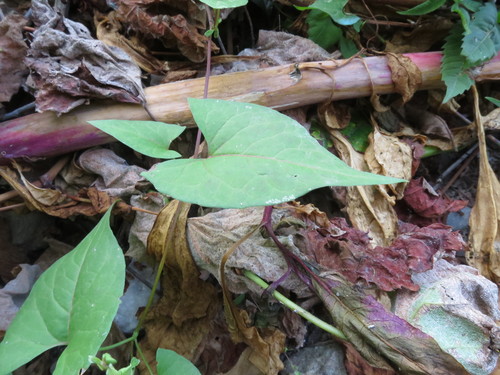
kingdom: Plantae
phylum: Tracheophyta
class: Magnoliopsida
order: Caryophyllales
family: Polygonaceae
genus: Fallopia
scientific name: Fallopia convolvulus
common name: Black bindweed
